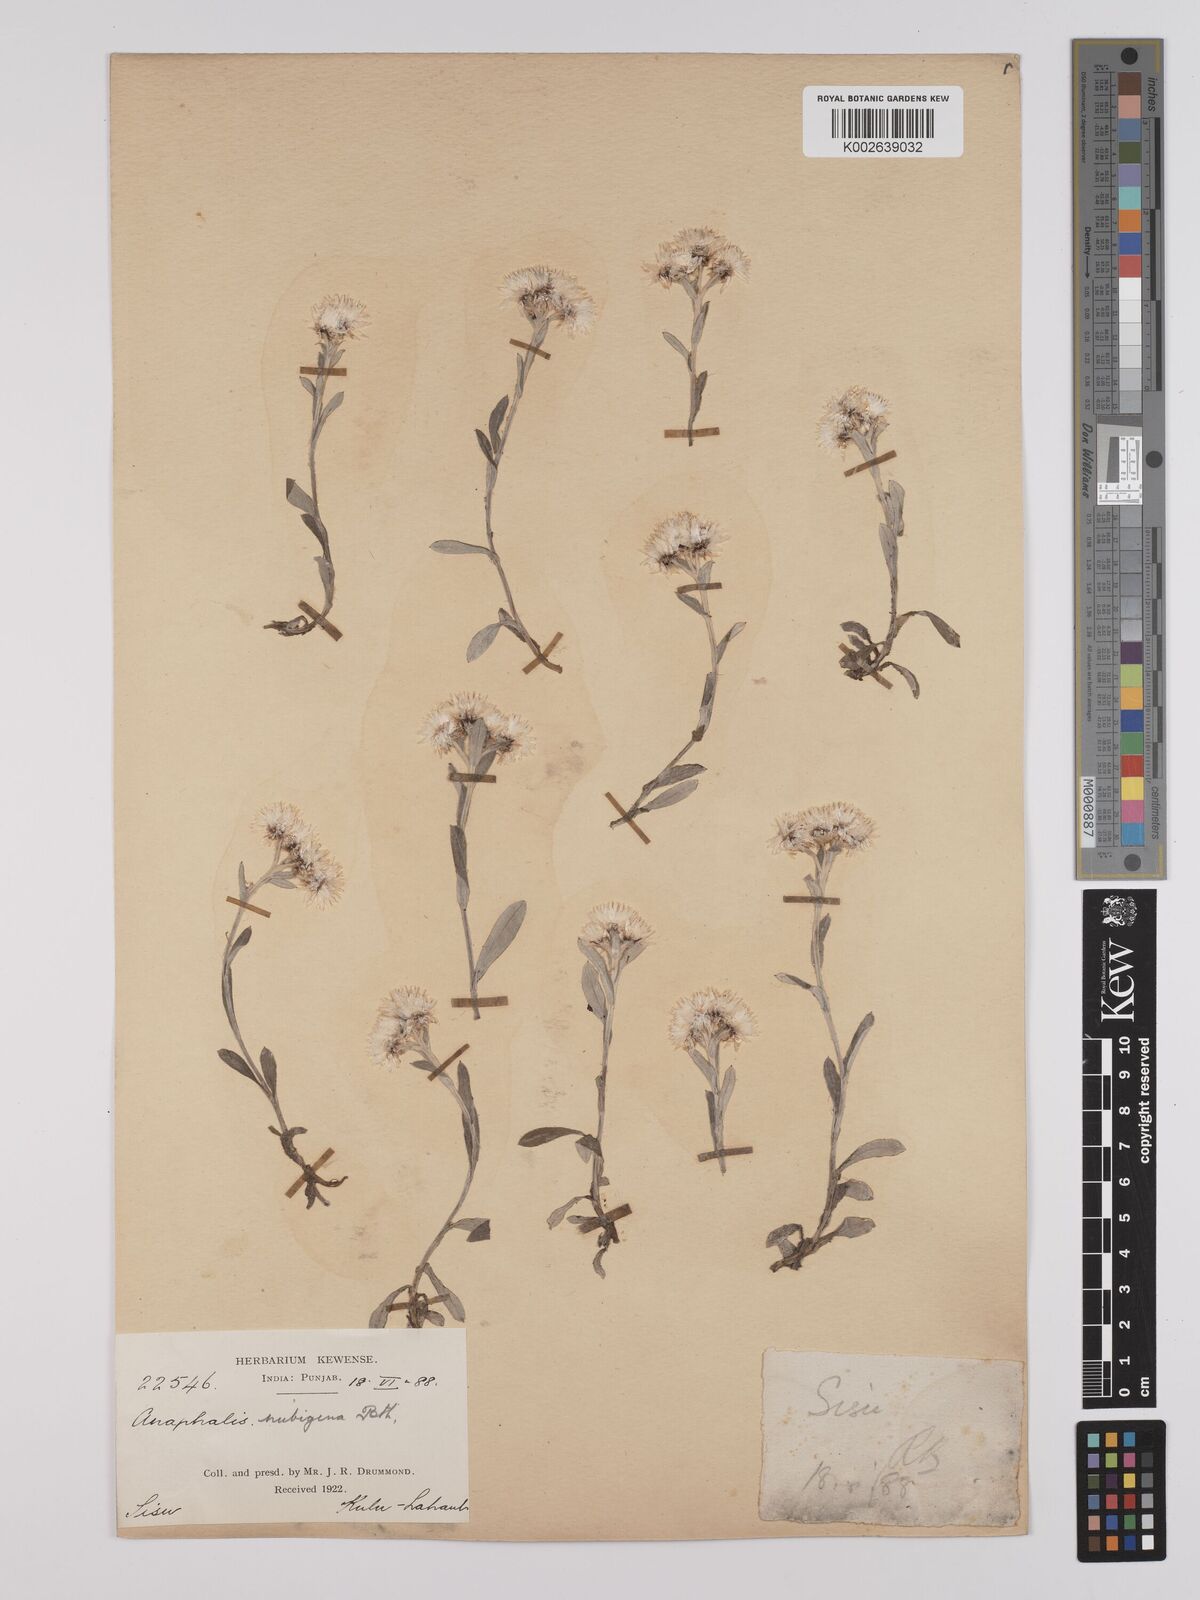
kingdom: Plantae
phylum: Tracheophyta
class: Magnoliopsida
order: Asterales
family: Asteraceae
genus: Anaphalis
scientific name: Anaphalis nepalensis
